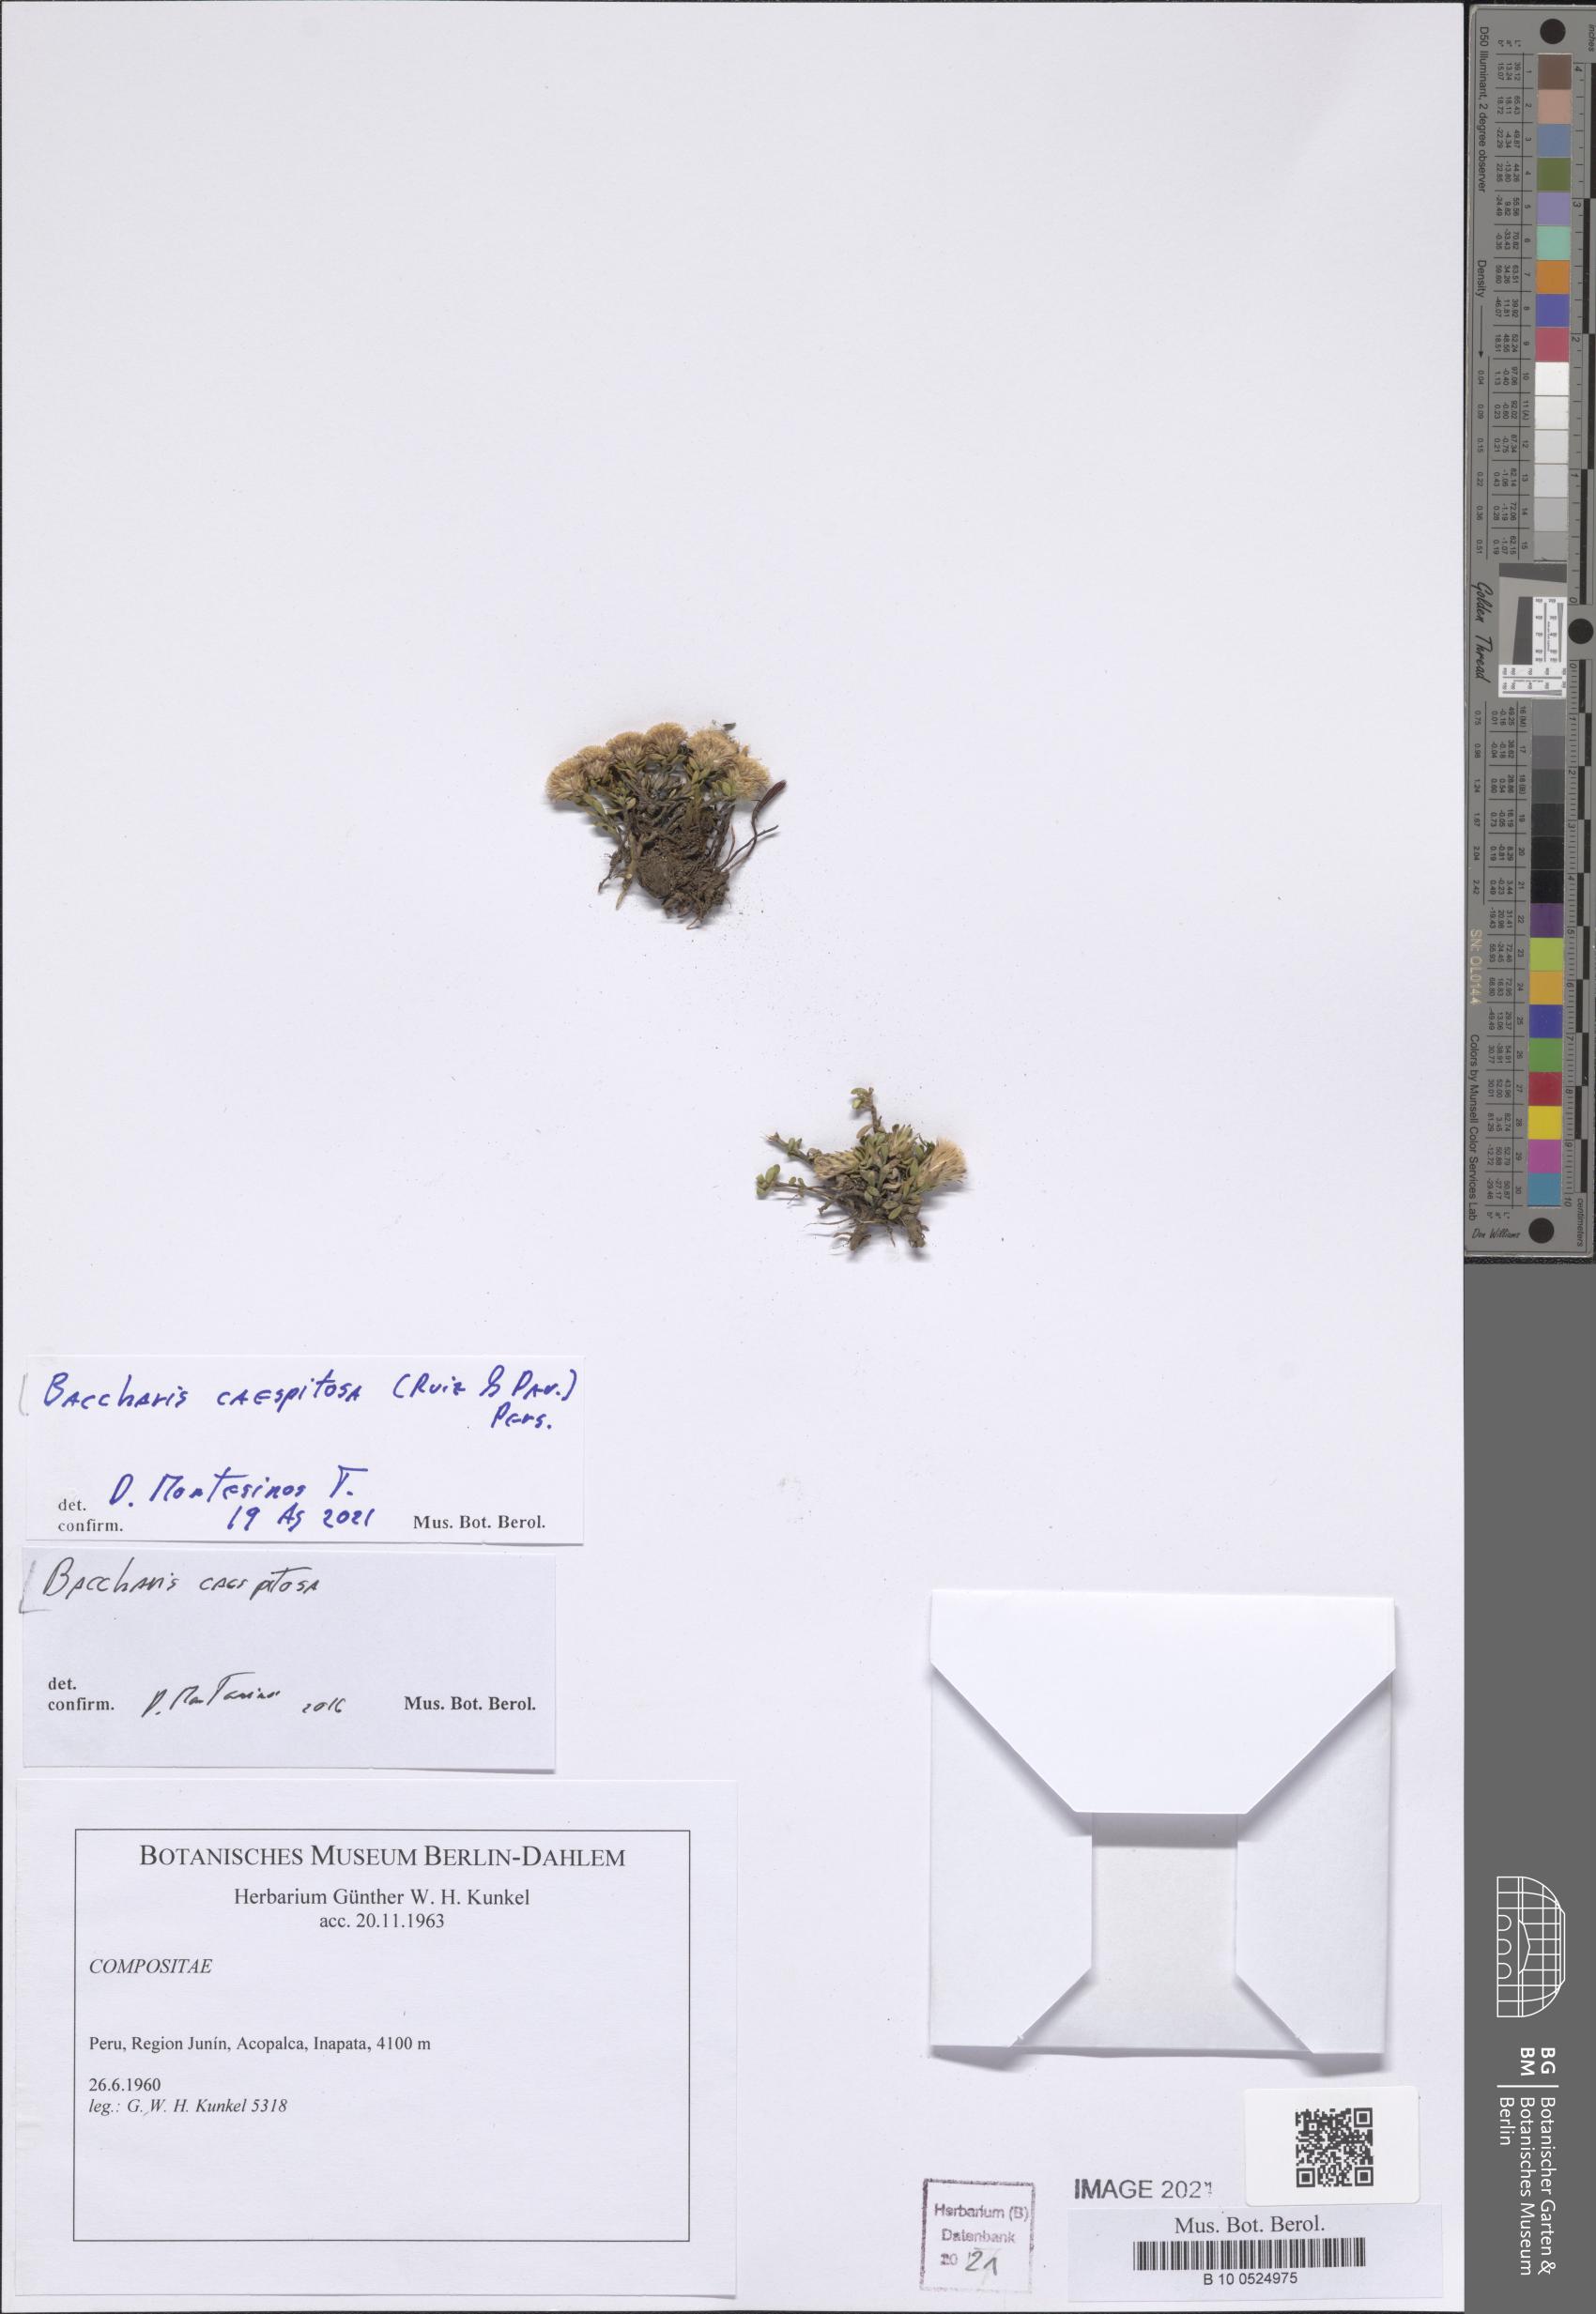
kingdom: Plantae
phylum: Tracheophyta
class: Magnoliopsida
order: Asterales
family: Asteraceae
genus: Baccharis
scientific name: Baccharis caespitosa
